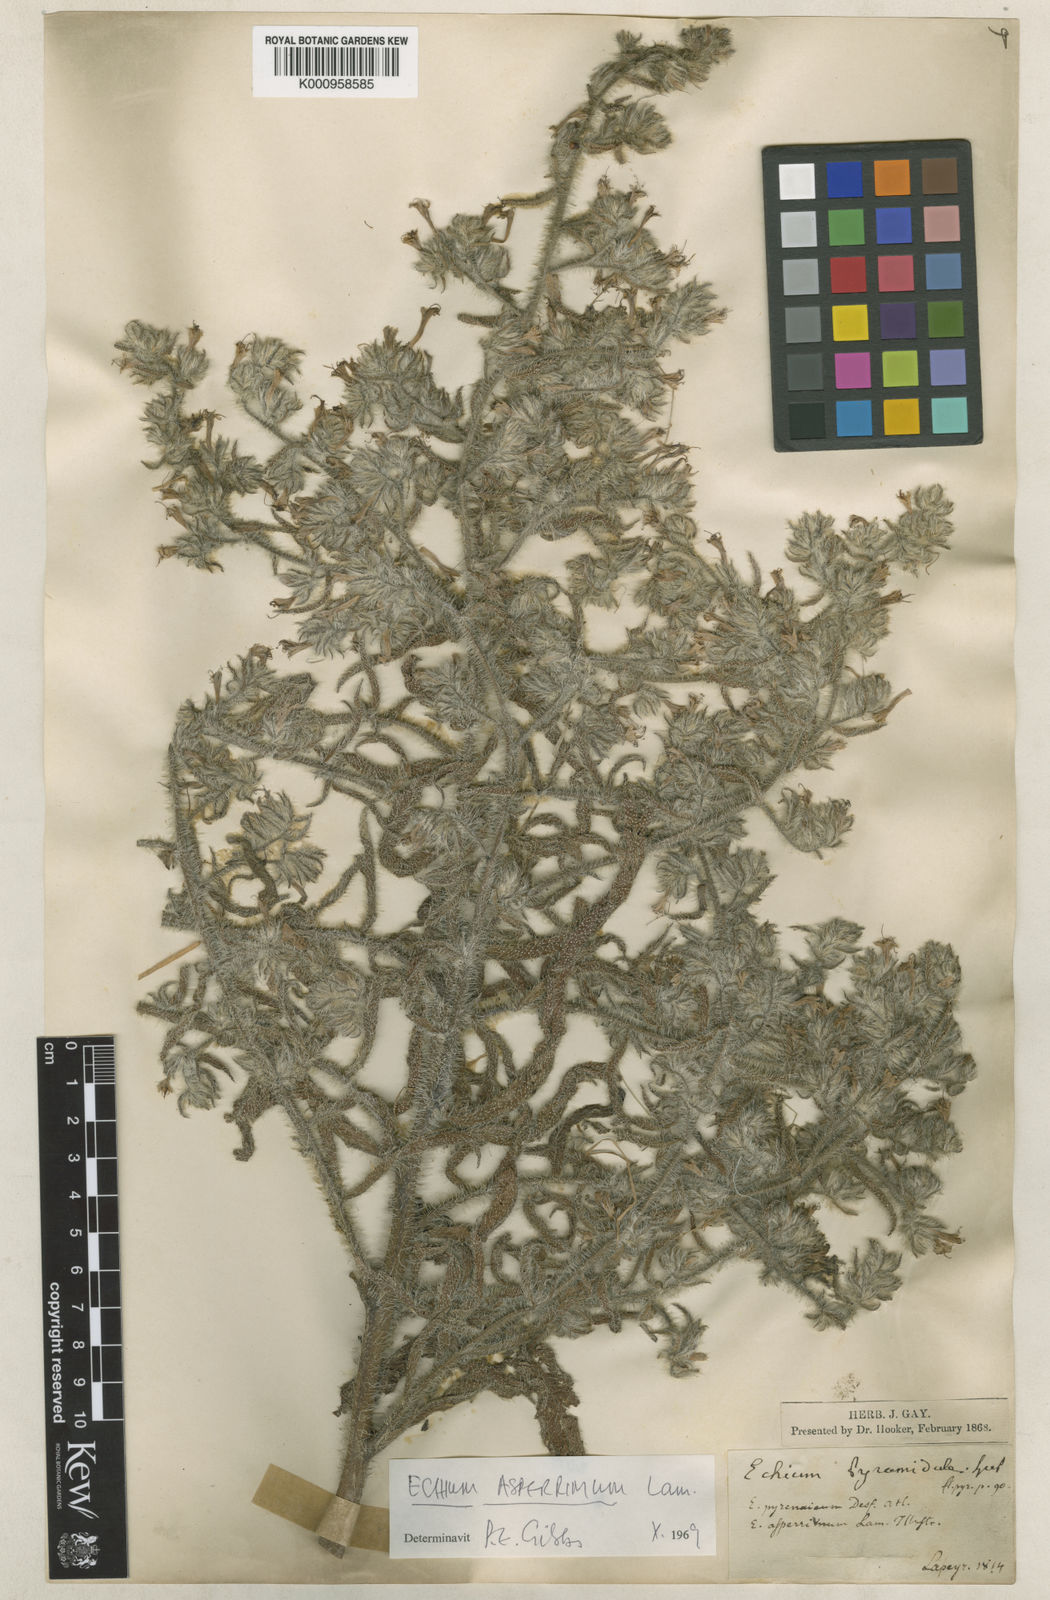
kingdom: Plantae
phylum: Tracheophyta
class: Magnoliopsida
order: Boraginales
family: Boraginaceae
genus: Echium
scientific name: Echium asperrimum
